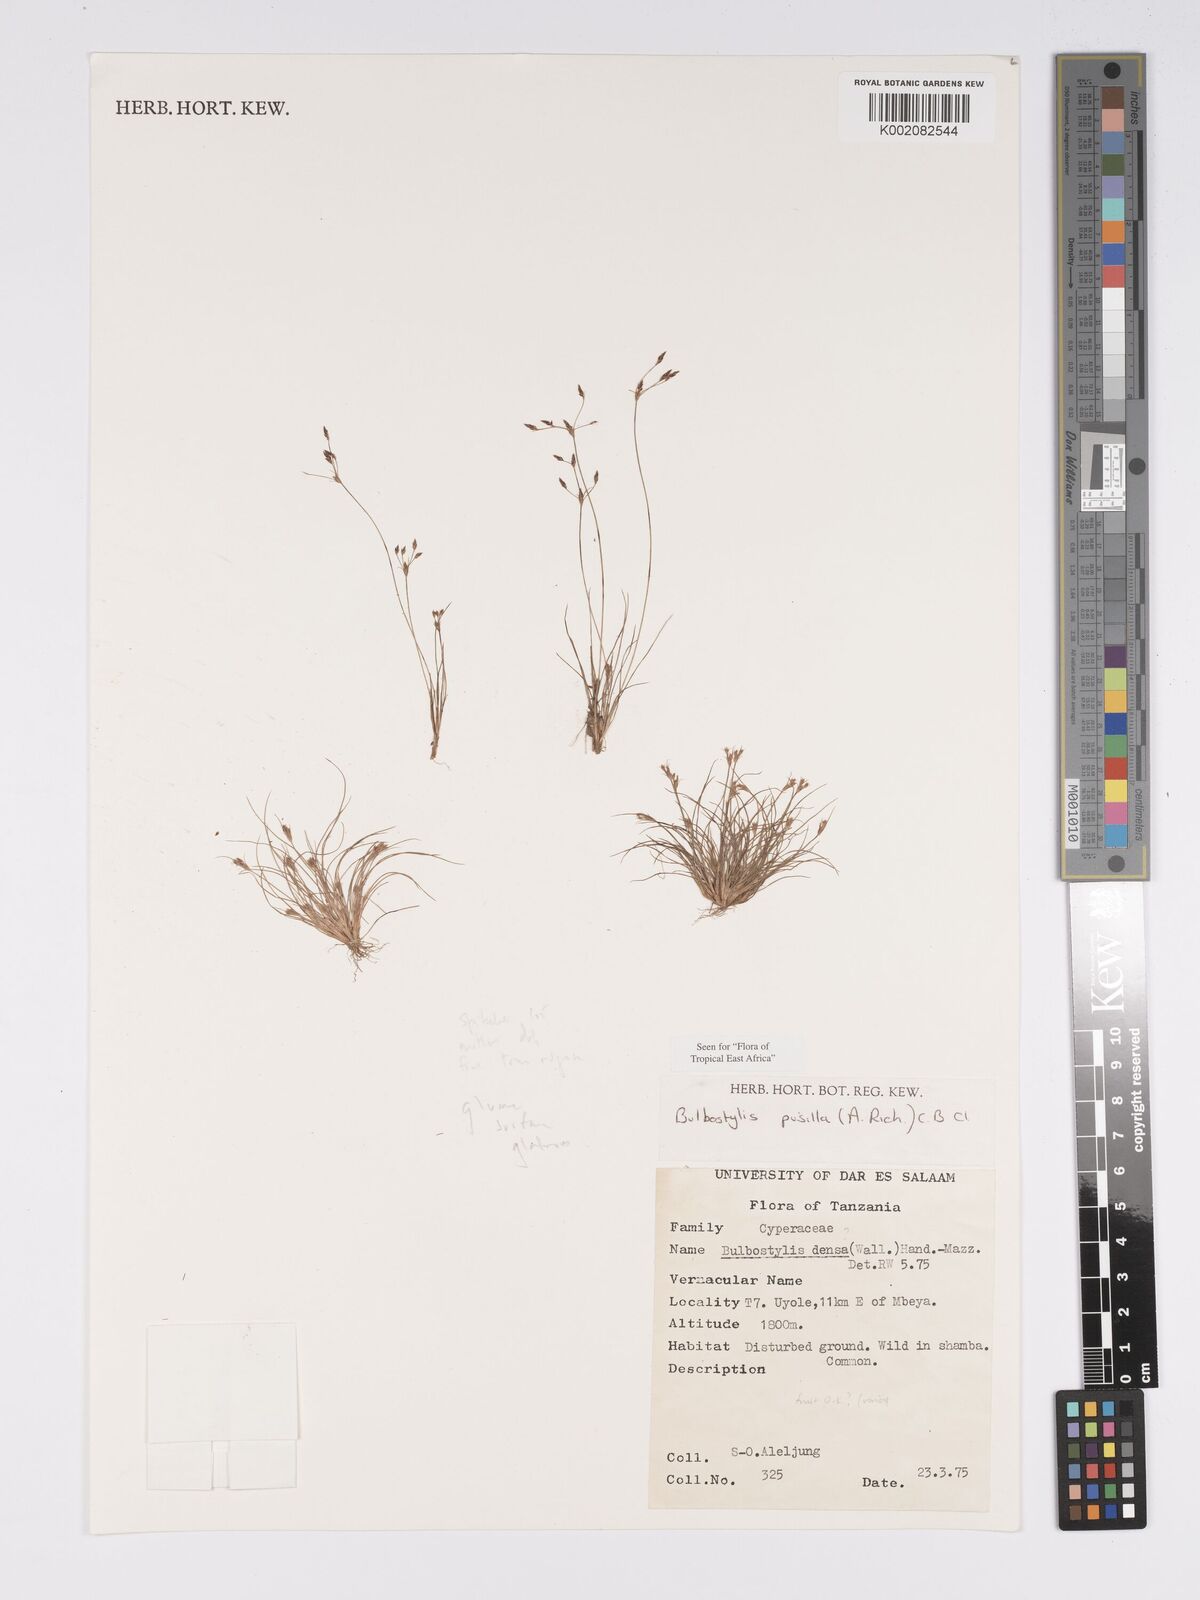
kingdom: Plantae
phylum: Tracheophyta
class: Liliopsida
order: Poales
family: Cyperaceae
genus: Bulbostylis
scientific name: Bulbostylis pusilla
